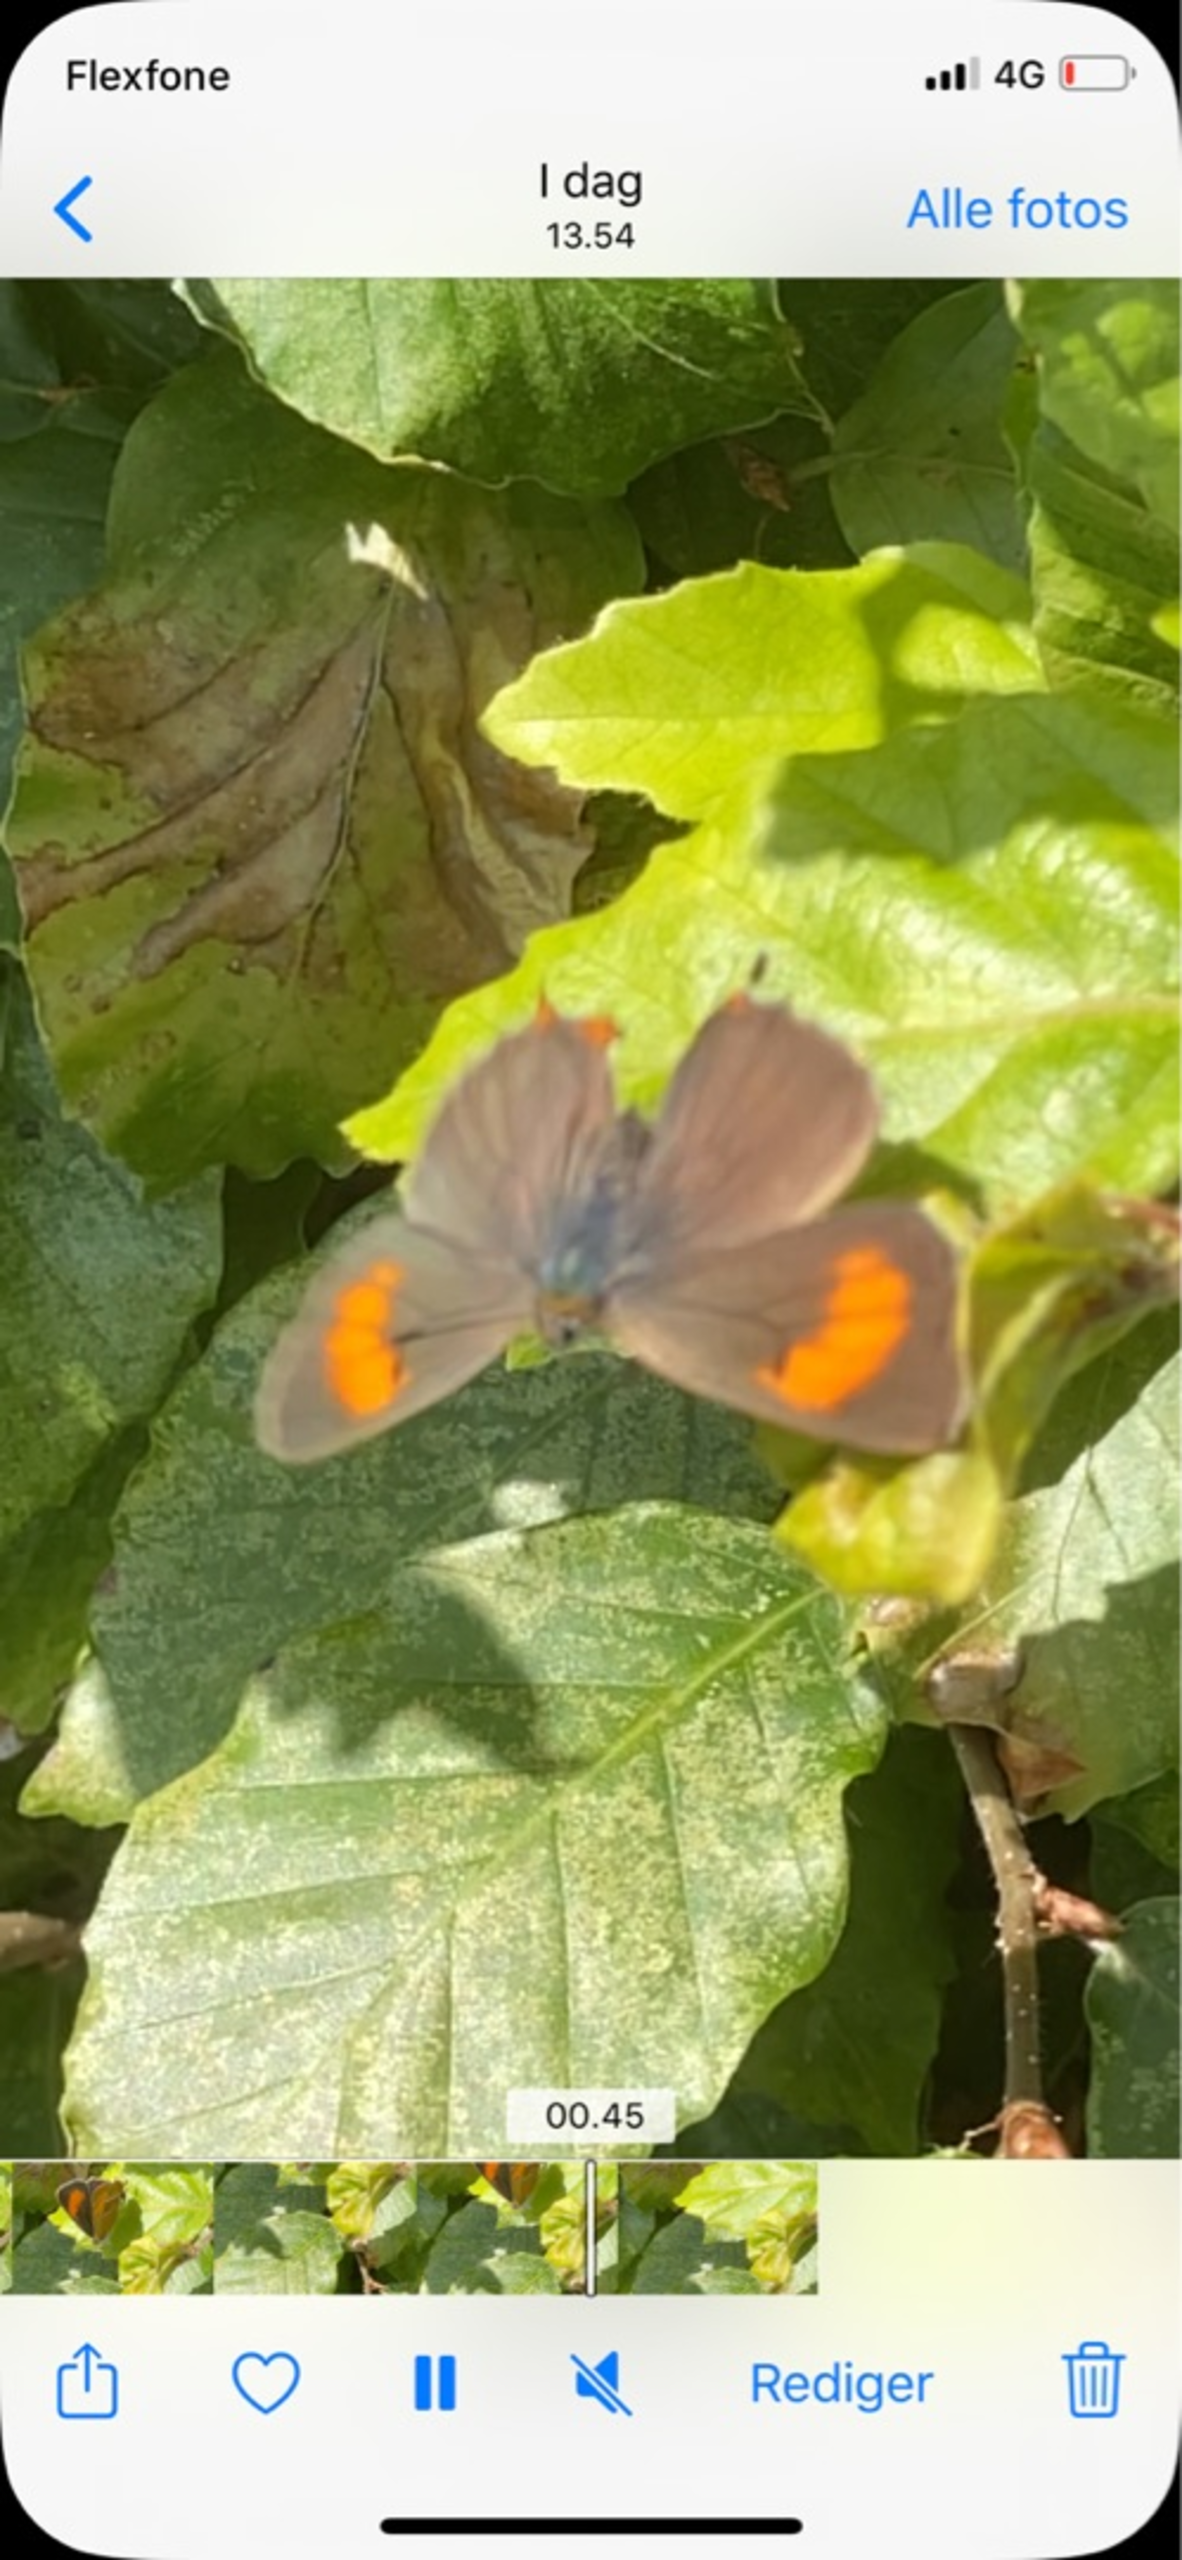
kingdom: Animalia
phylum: Arthropoda
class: Insecta
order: Lepidoptera
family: Lycaenidae
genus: Thecla
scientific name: Thecla betulae
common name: Guldhale
